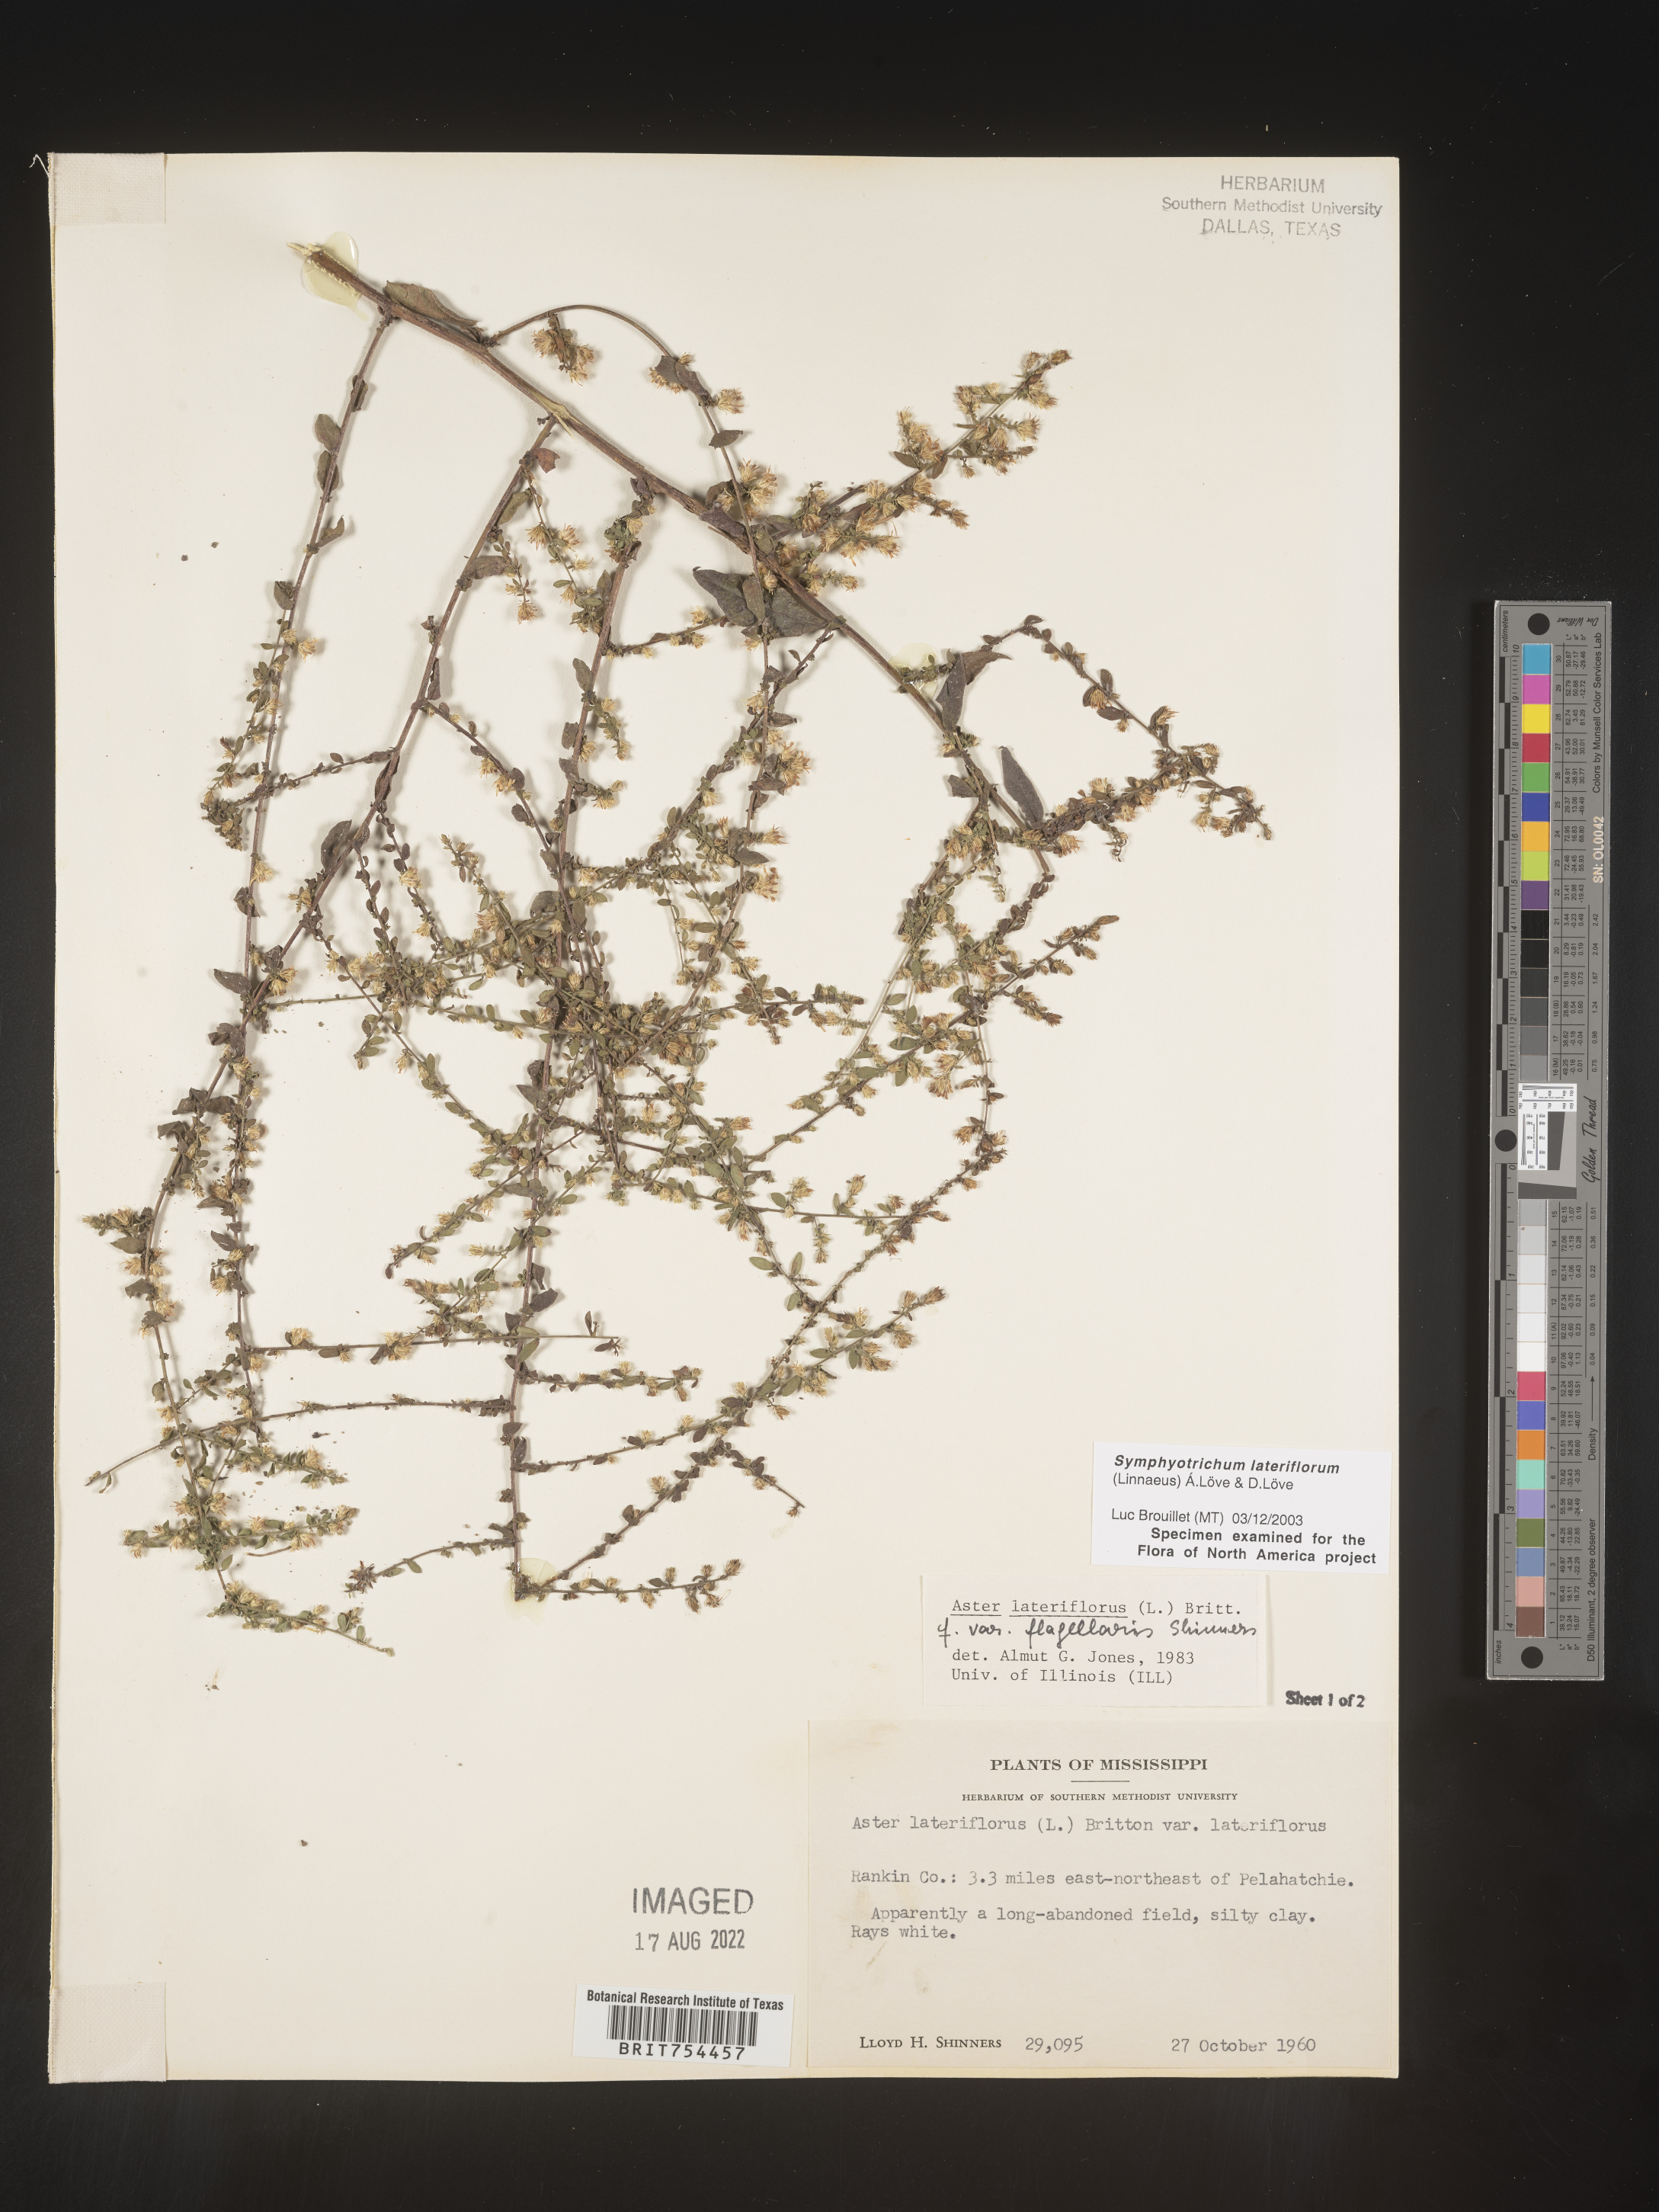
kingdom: Plantae
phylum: Tracheophyta
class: Magnoliopsida
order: Asterales
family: Asteraceae
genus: Symphyotrichum
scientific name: Symphyotrichum lateriflorum
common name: Calico aster
